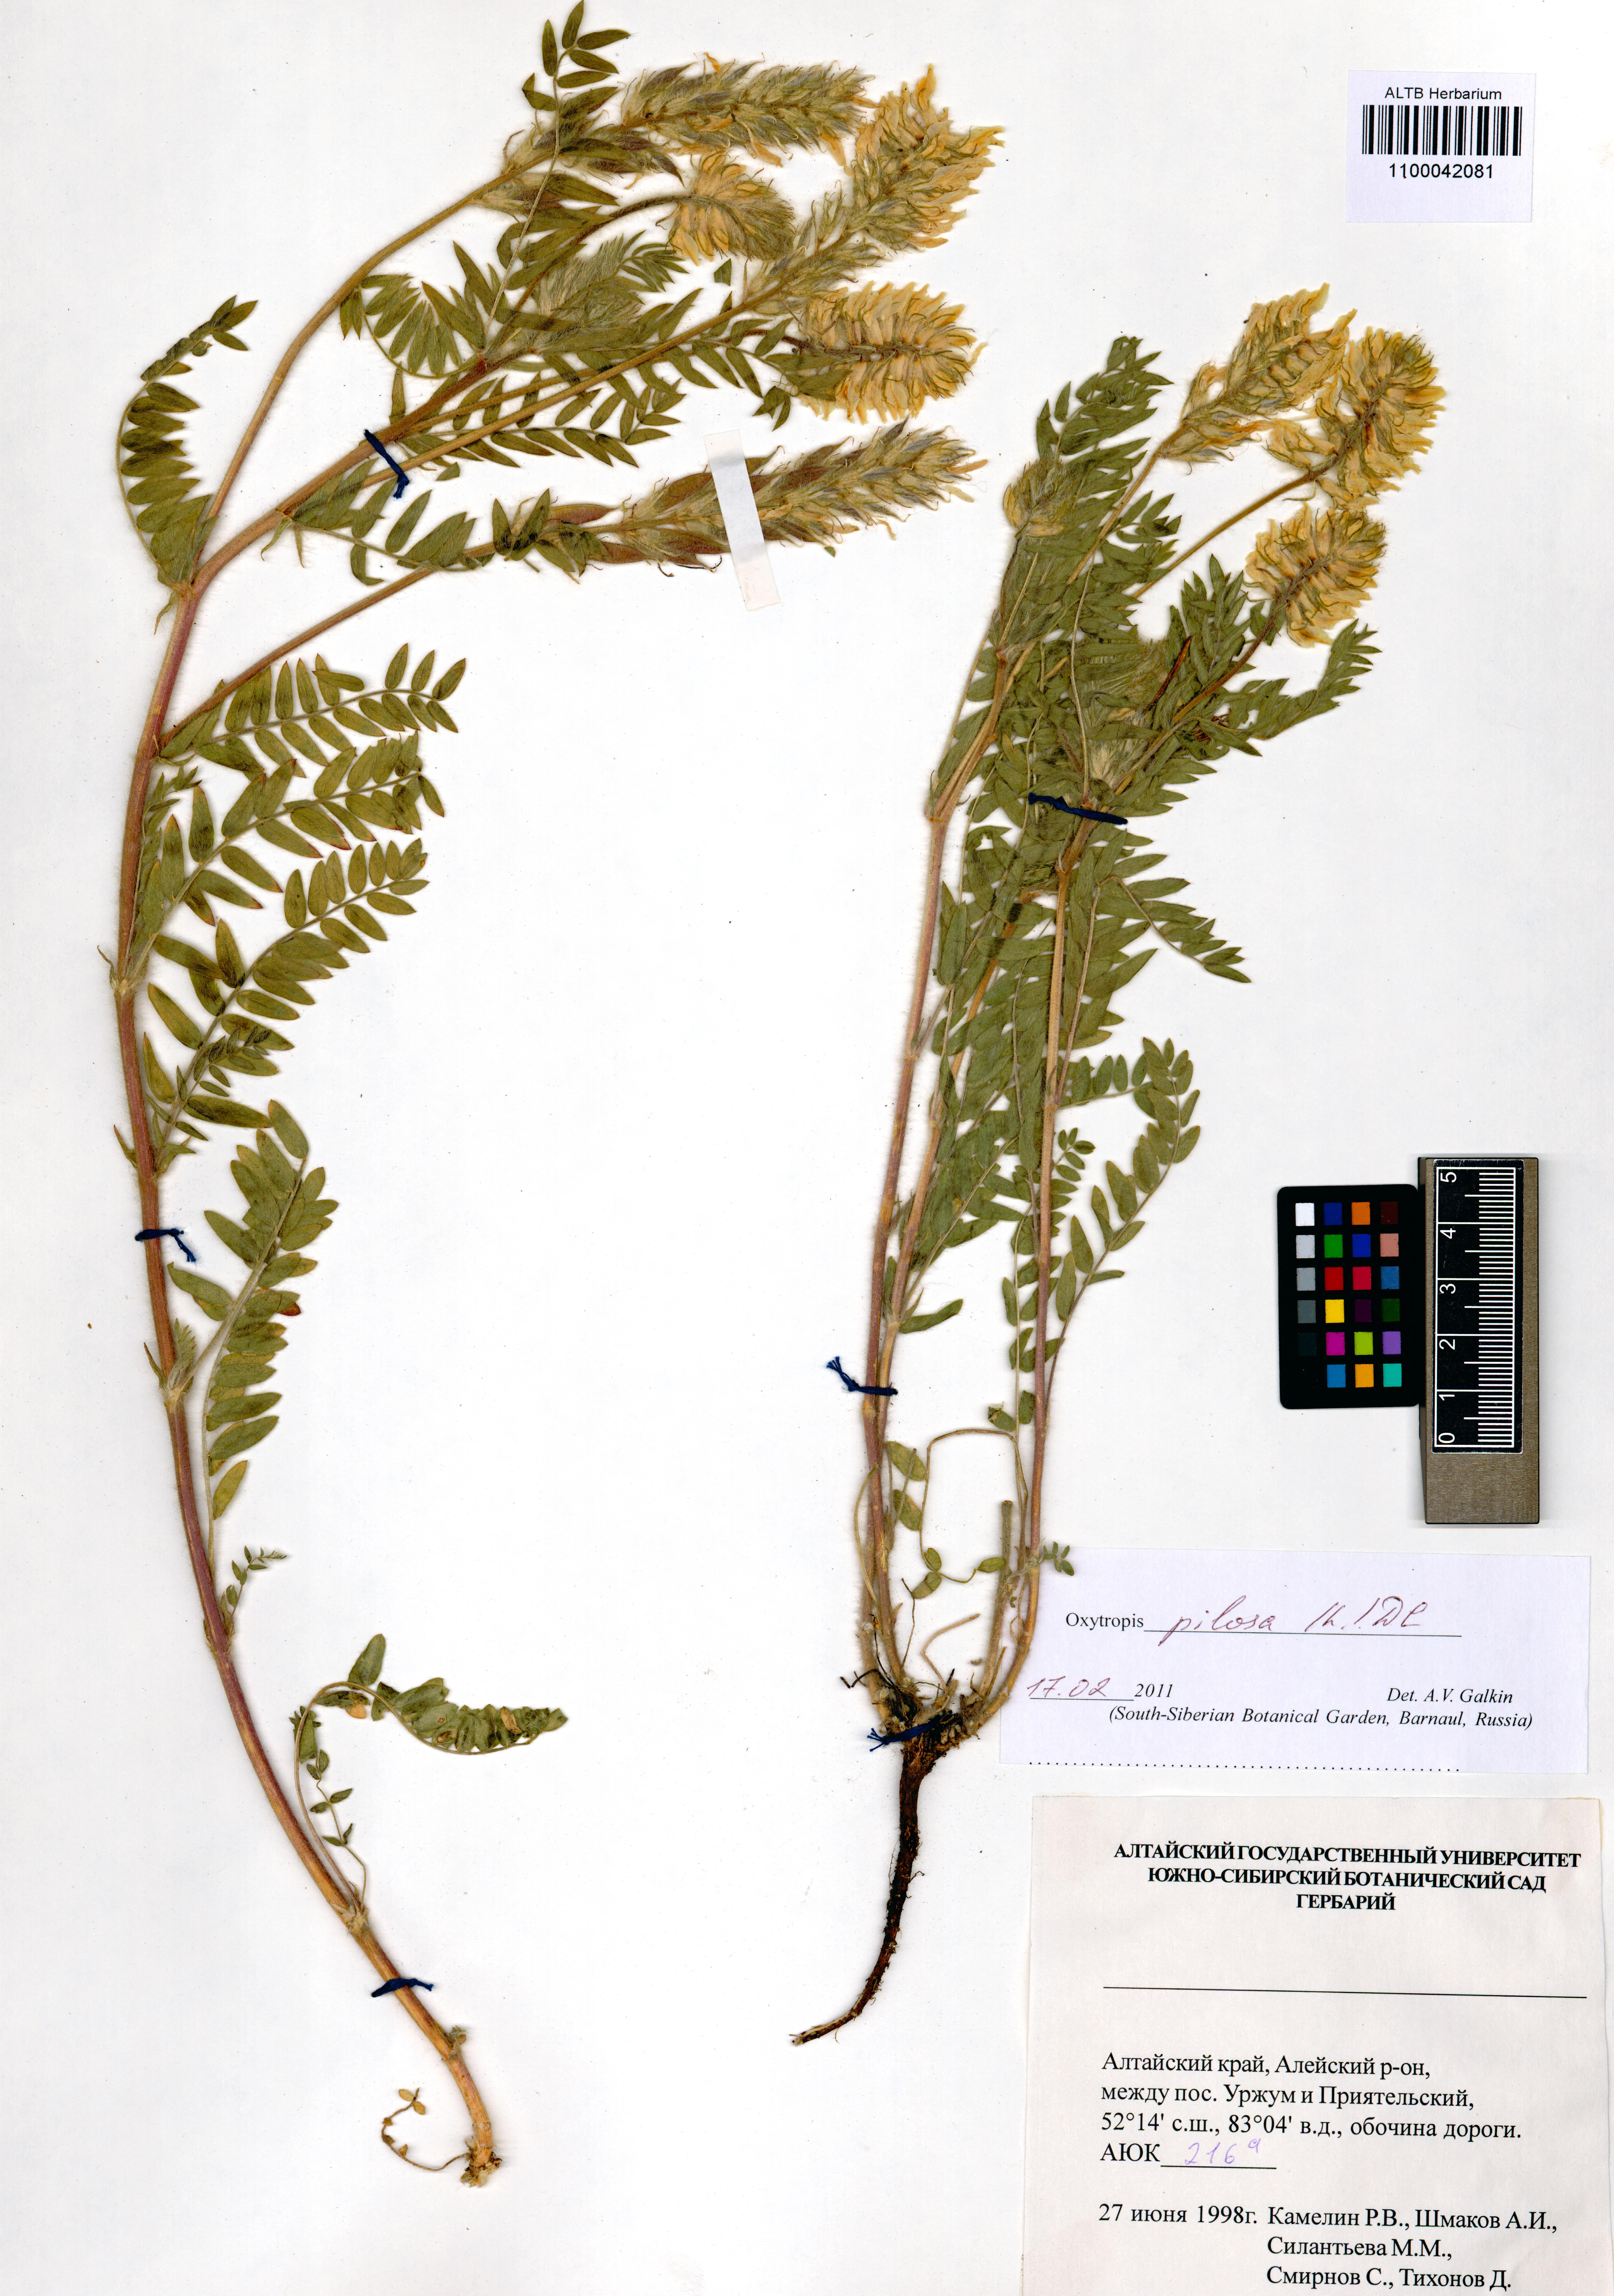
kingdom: Plantae
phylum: Tracheophyta
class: Magnoliopsida
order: Fabales
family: Fabaceae
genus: Oxytropis
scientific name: Oxytropis pilosa
